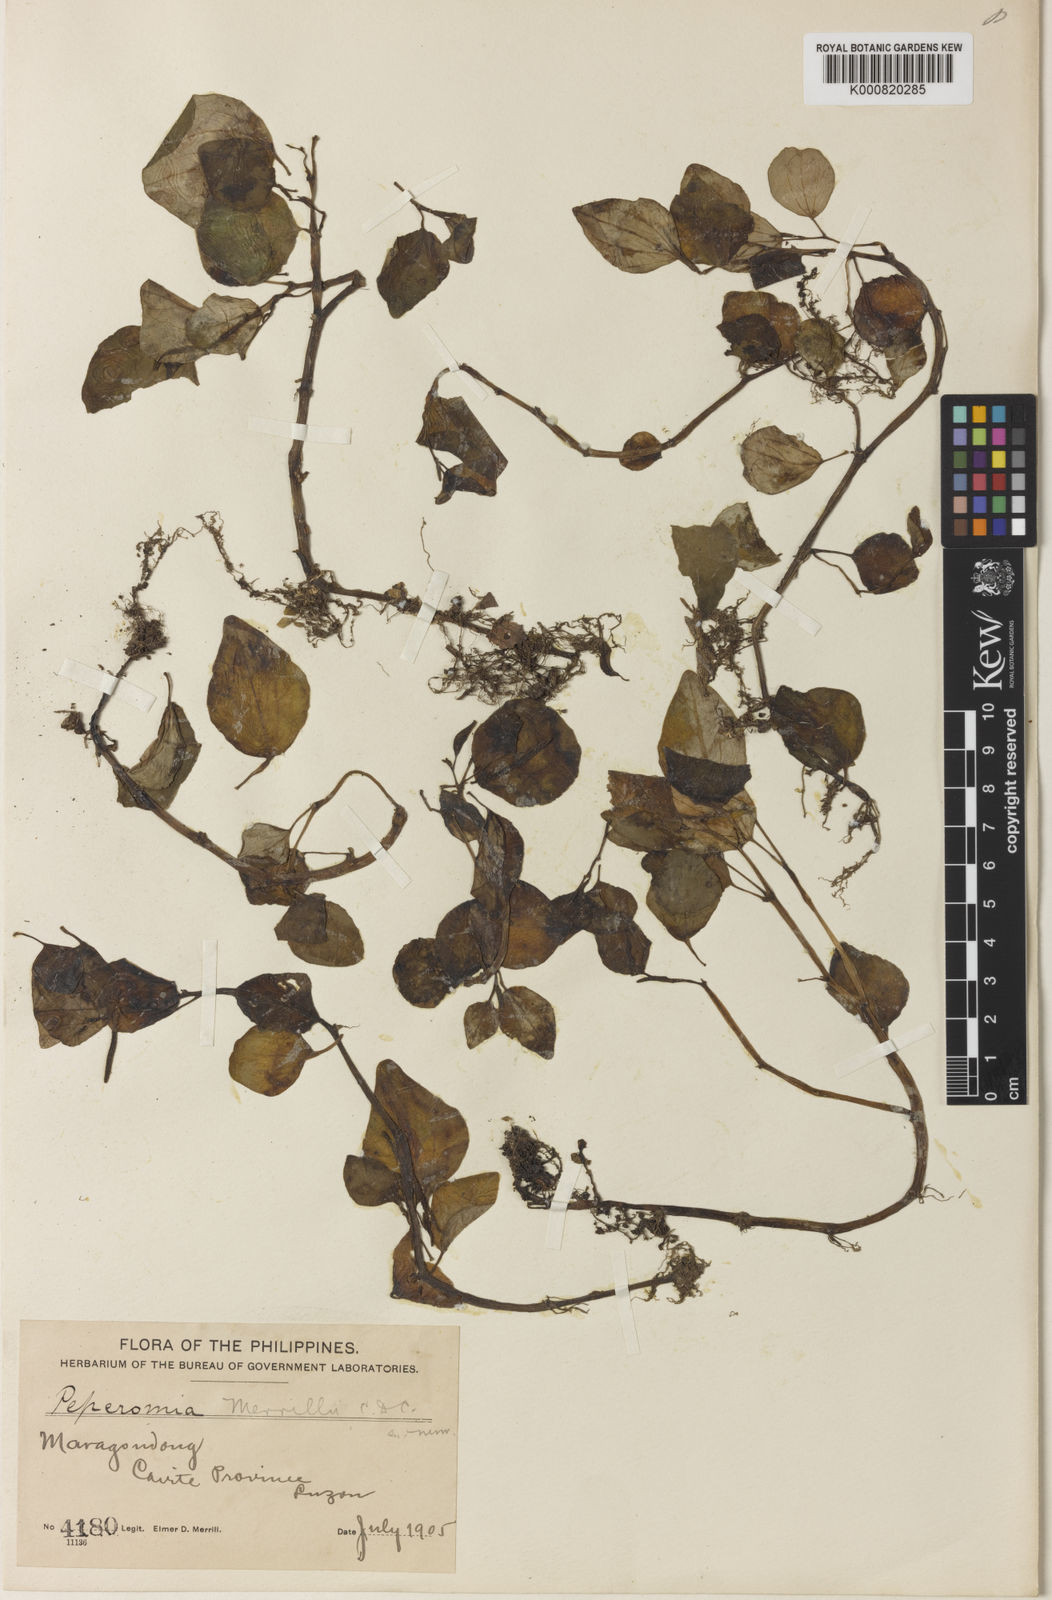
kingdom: Plantae
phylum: Tracheophyta
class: Magnoliopsida
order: Piperales
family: Piperaceae
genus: Peperomia
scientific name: Peperomia merrillii
